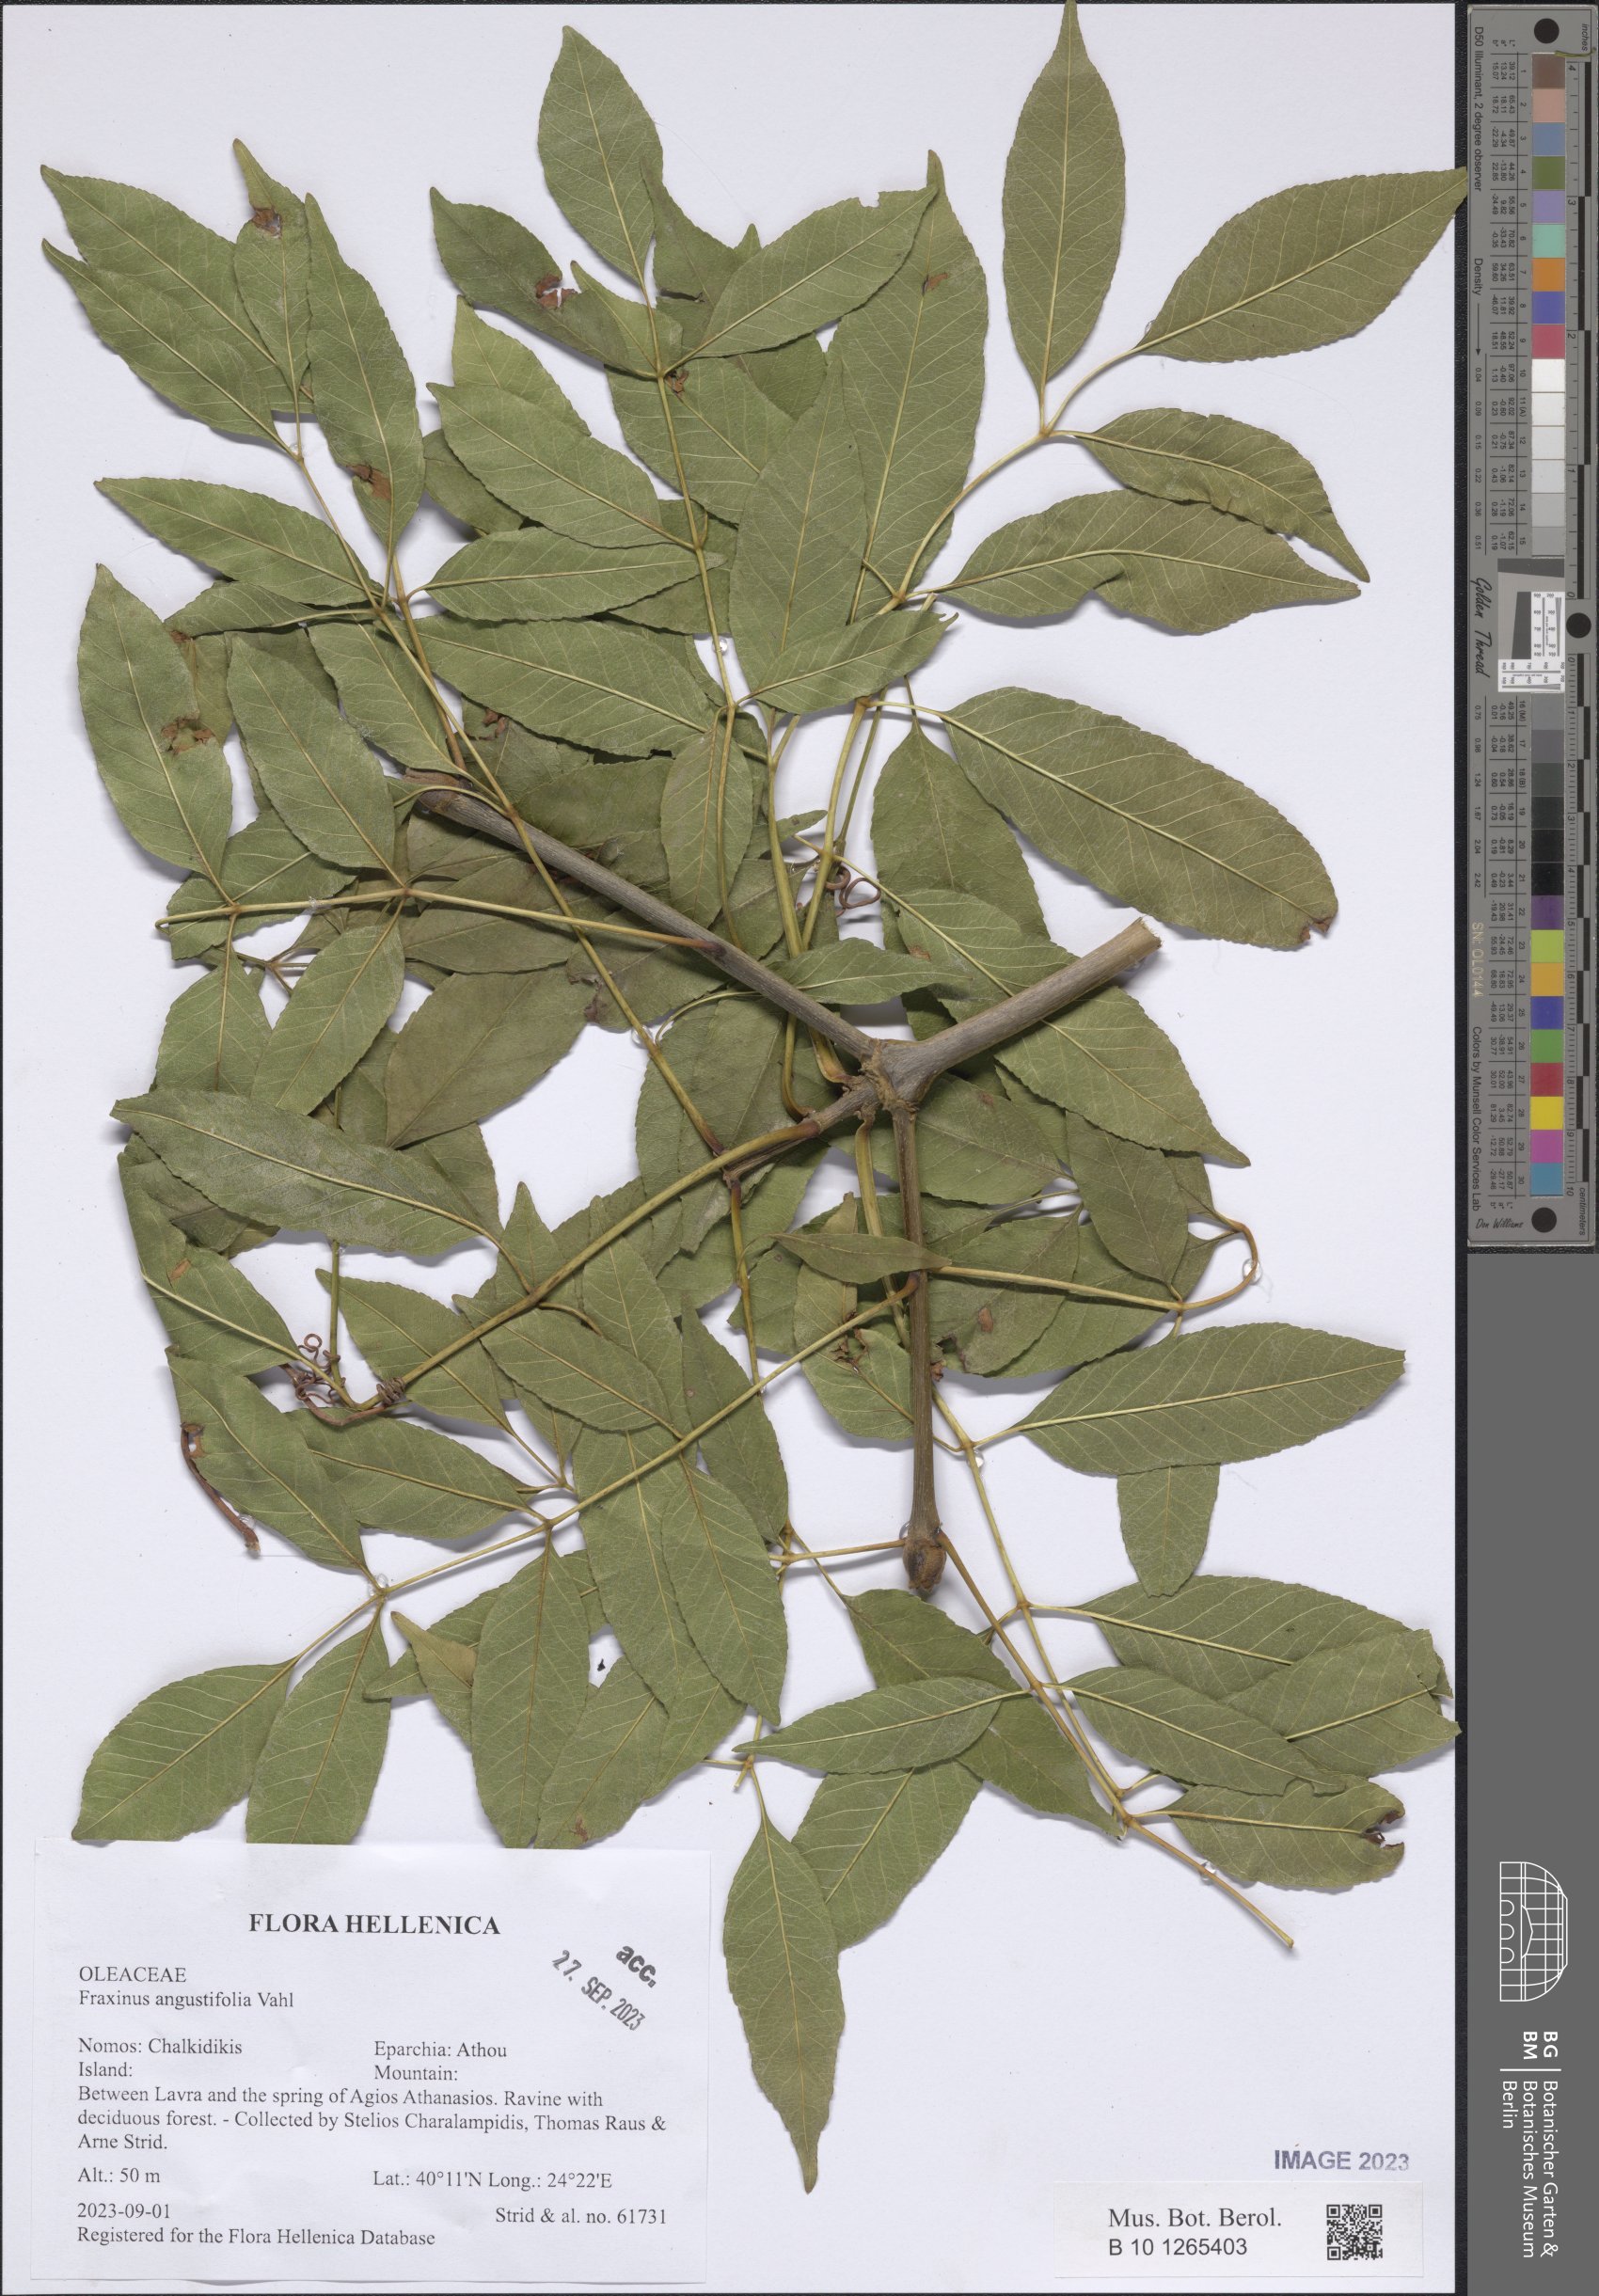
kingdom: Plantae
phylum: Tracheophyta
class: Magnoliopsida
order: Lamiales
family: Oleaceae
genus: Fraxinus
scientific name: Fraxinus angustifolia
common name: Narrow-leafed ash
